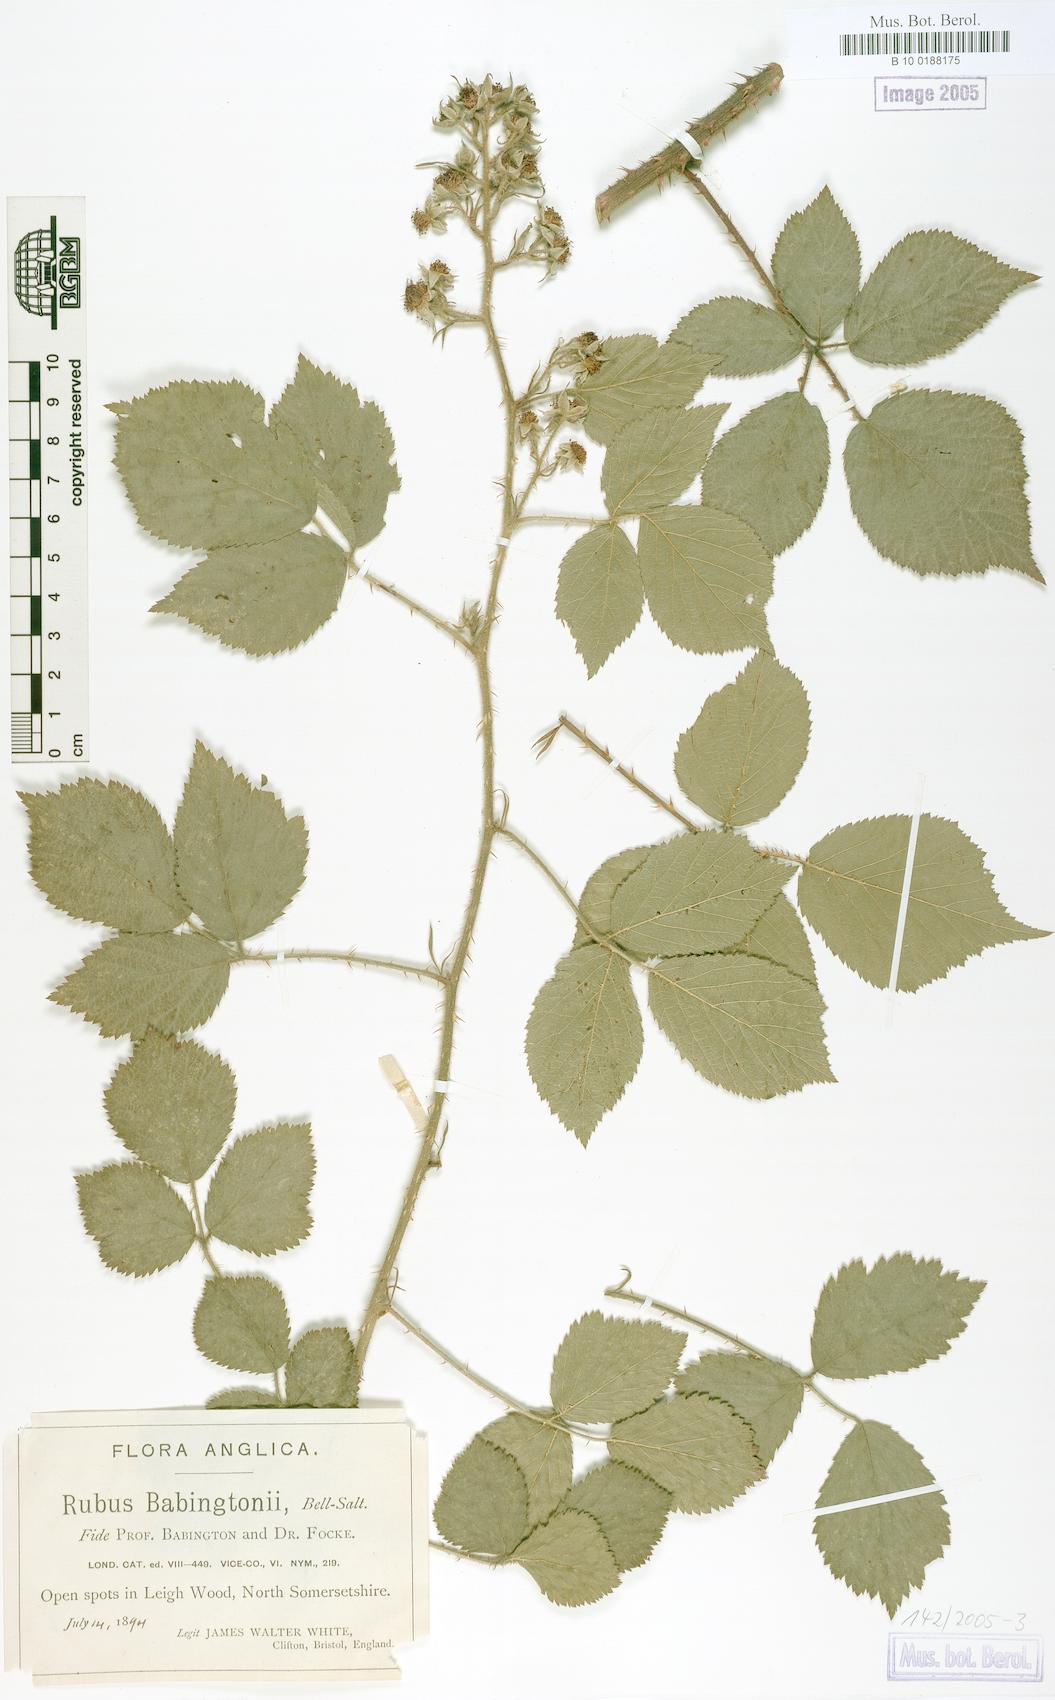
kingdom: Plantae
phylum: Tracheophyta
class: Magnoliopsida
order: Rosales
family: Rosaceae
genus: Rubus
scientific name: Rubus babingtonii
